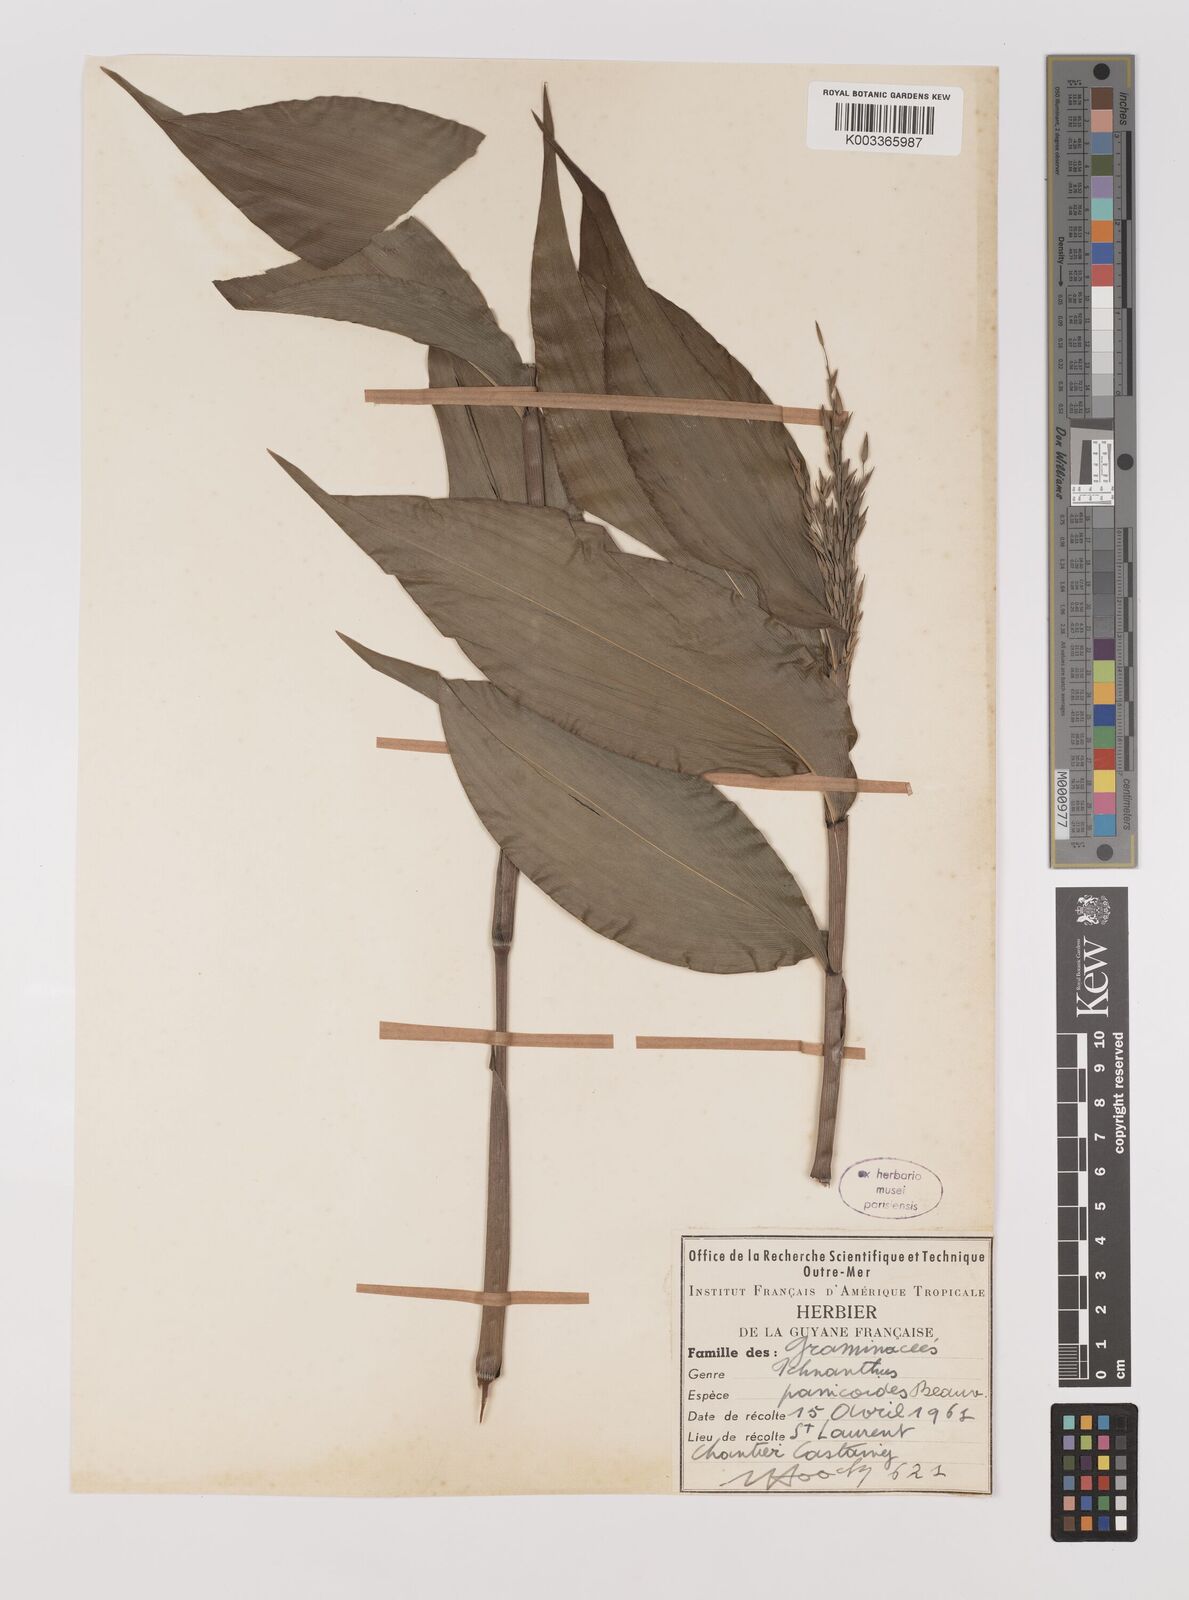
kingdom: Plantae
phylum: Tracheophyta
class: Liliopsida
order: Poales
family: Poaceae
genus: Ichnanthus
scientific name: Ichnanthus panicoides
